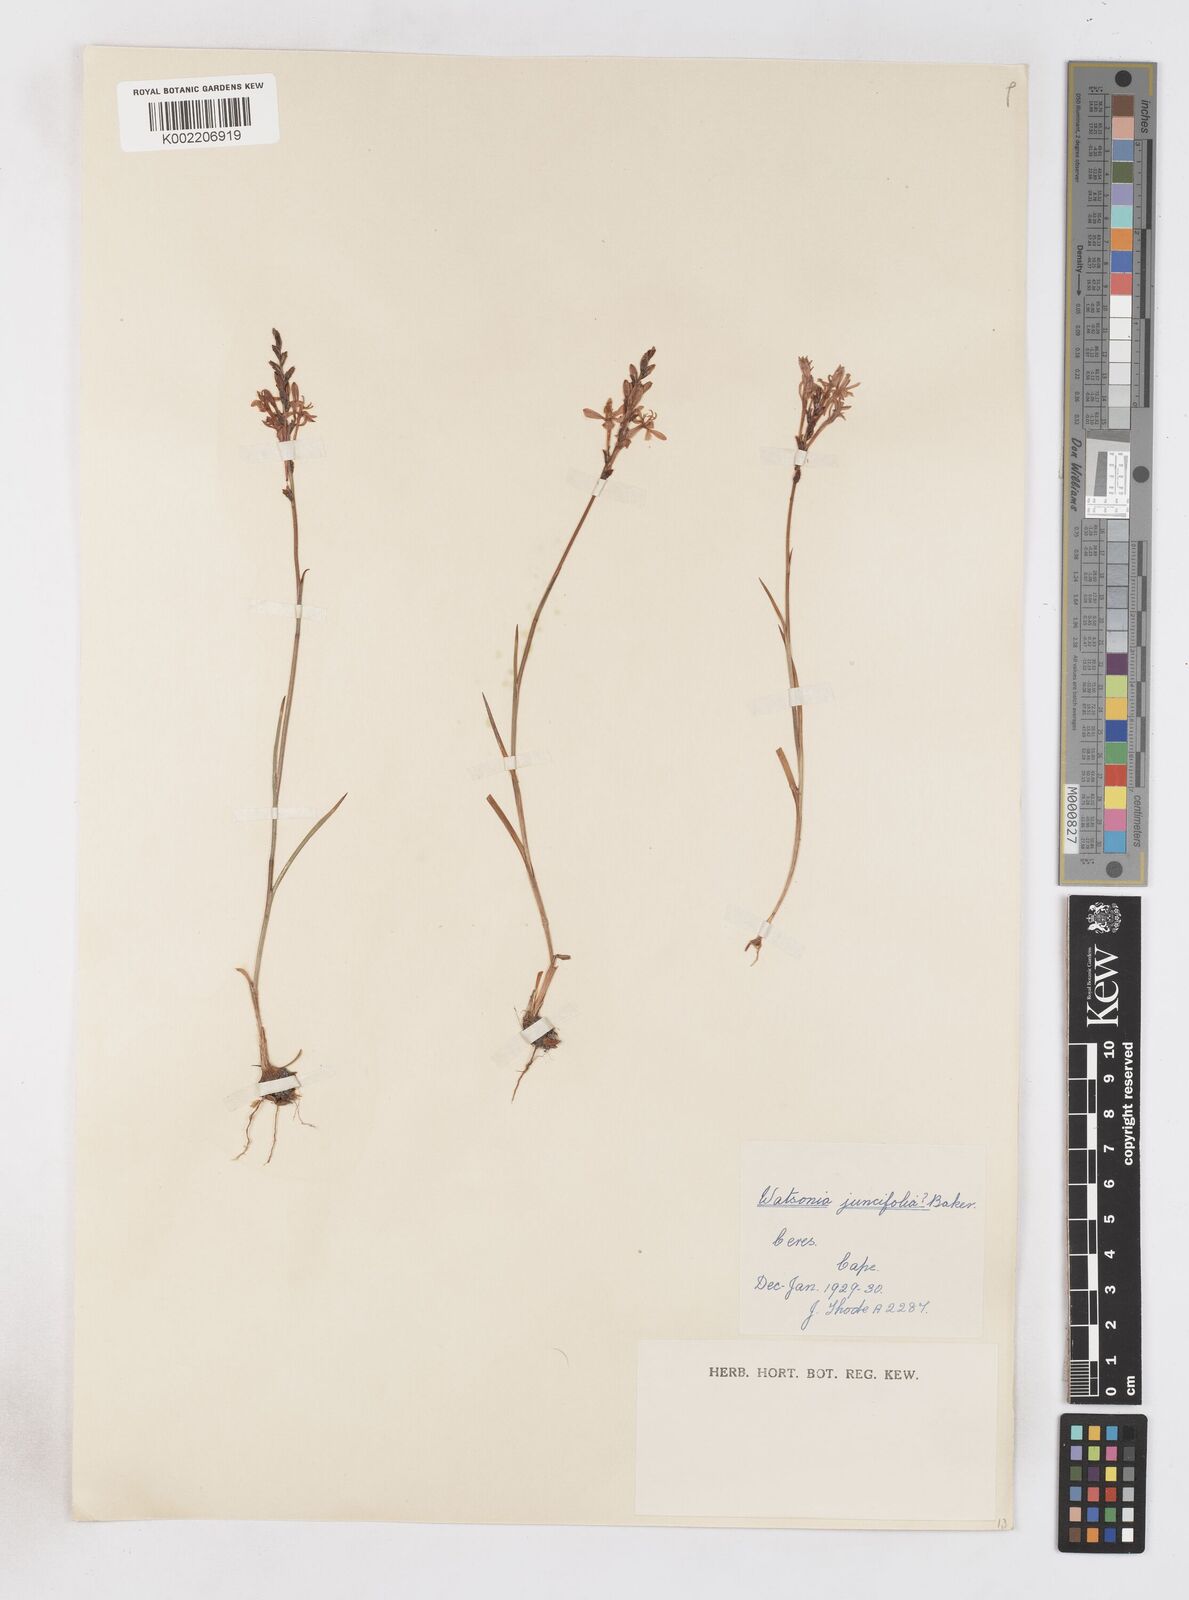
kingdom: Plantae
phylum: Tracheophyta
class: Liliopsida
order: Asparagales
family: Iridaceae
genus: Micranthus
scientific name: Micranthus
